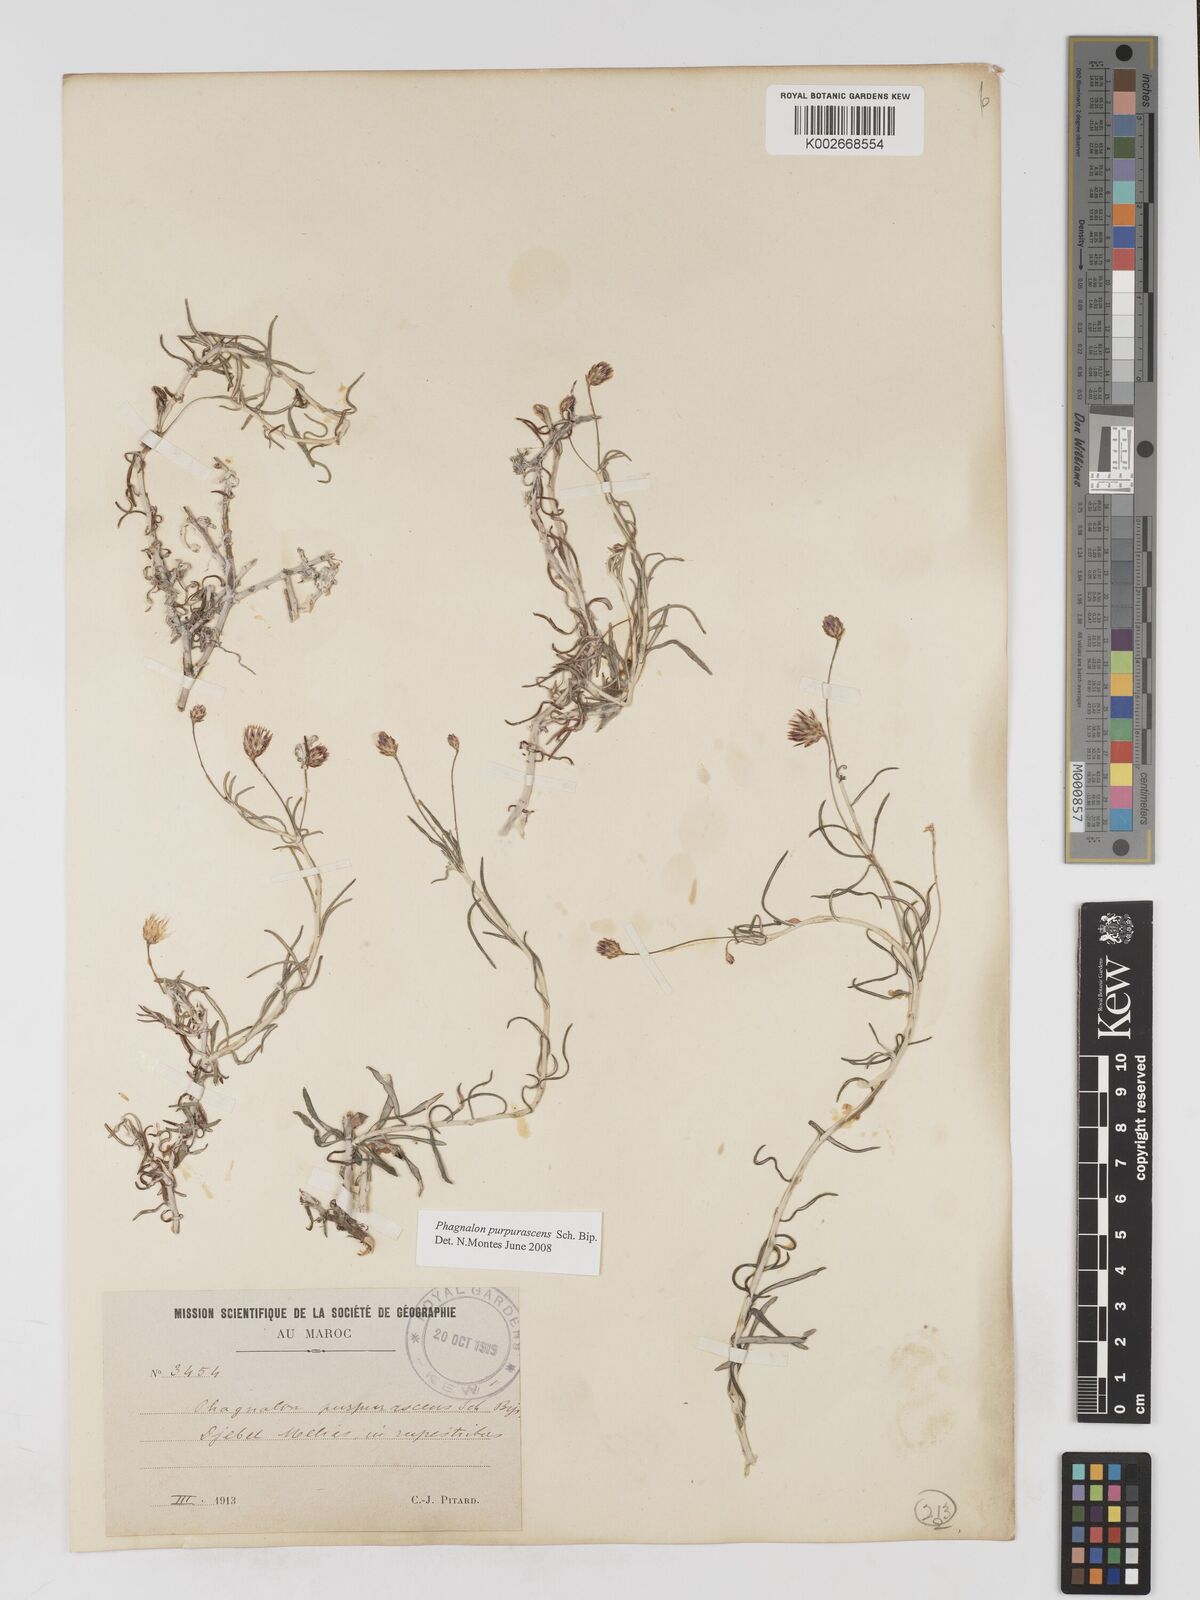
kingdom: Plantae
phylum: Tracheophyta
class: Magnoliopsida
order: Asterales
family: Asteraceae
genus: Phagnalon
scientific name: Phagnalon purpurascens
